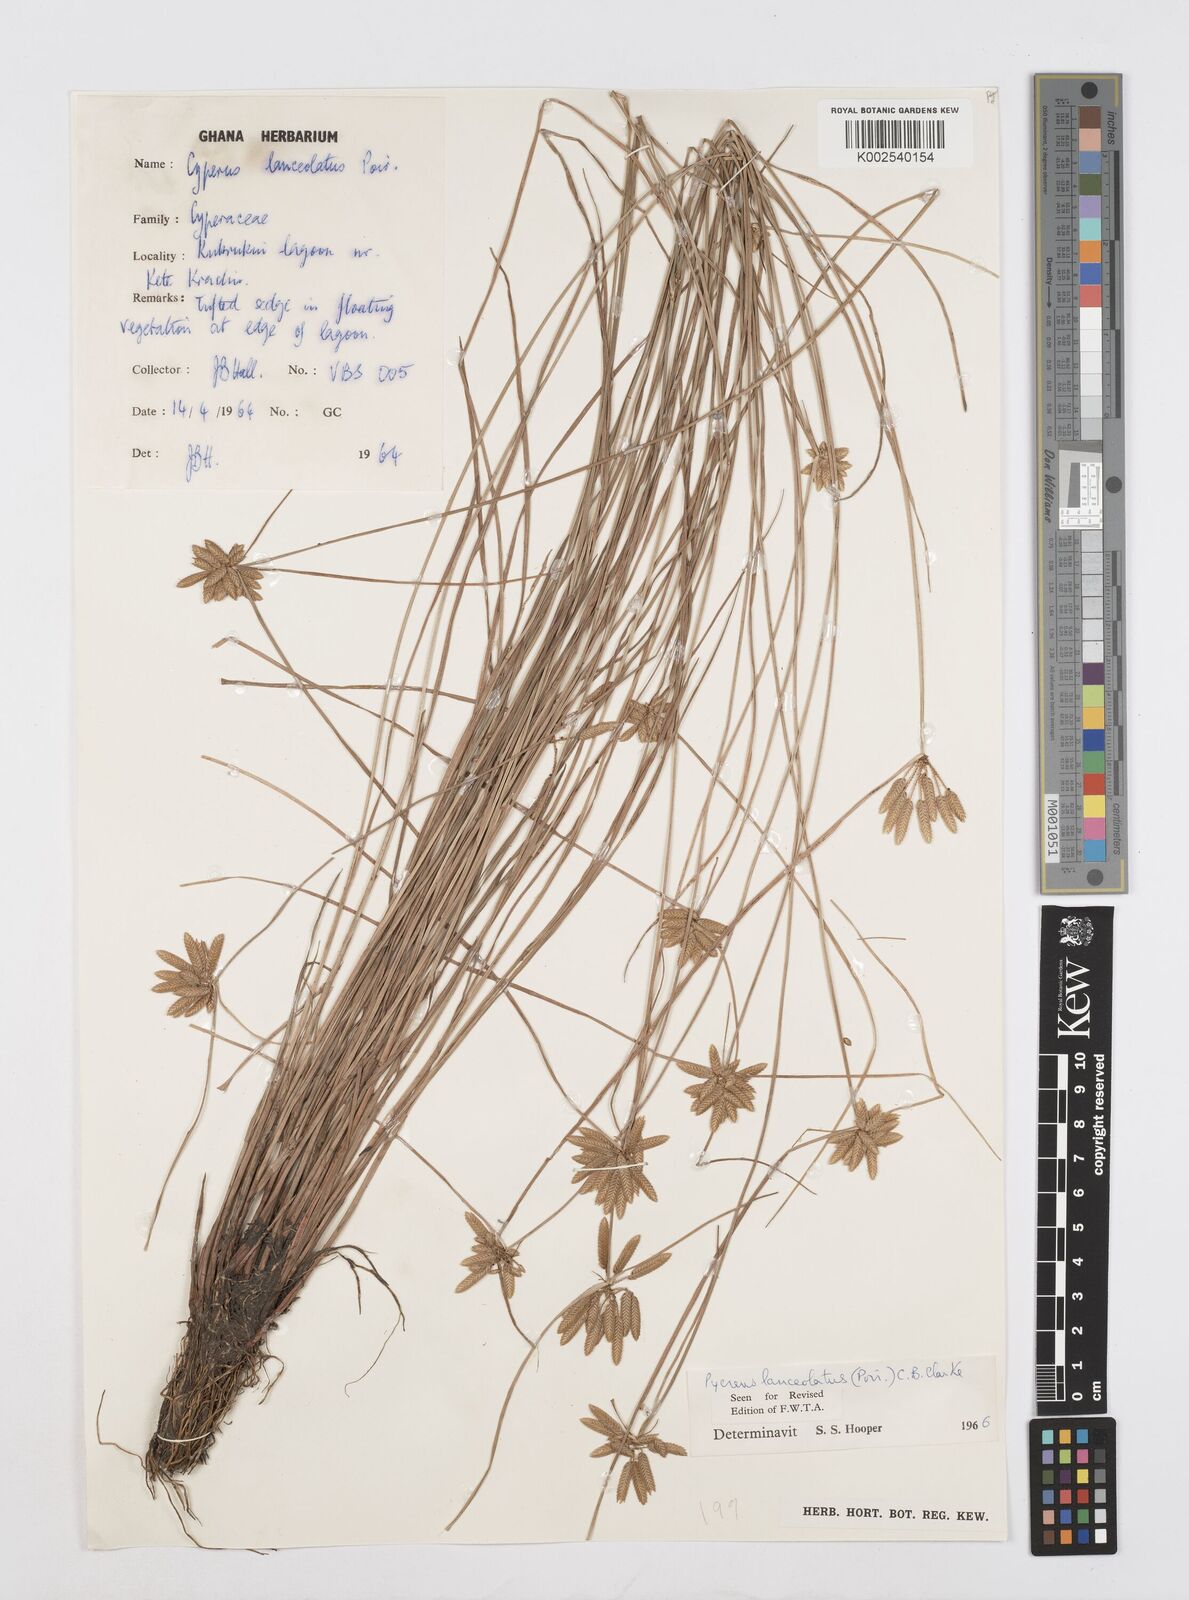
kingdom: Plantae
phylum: Tracheophyta
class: Liliopsida
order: Poales
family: Cyperaceae
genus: Cyperus
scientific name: Cyperus
